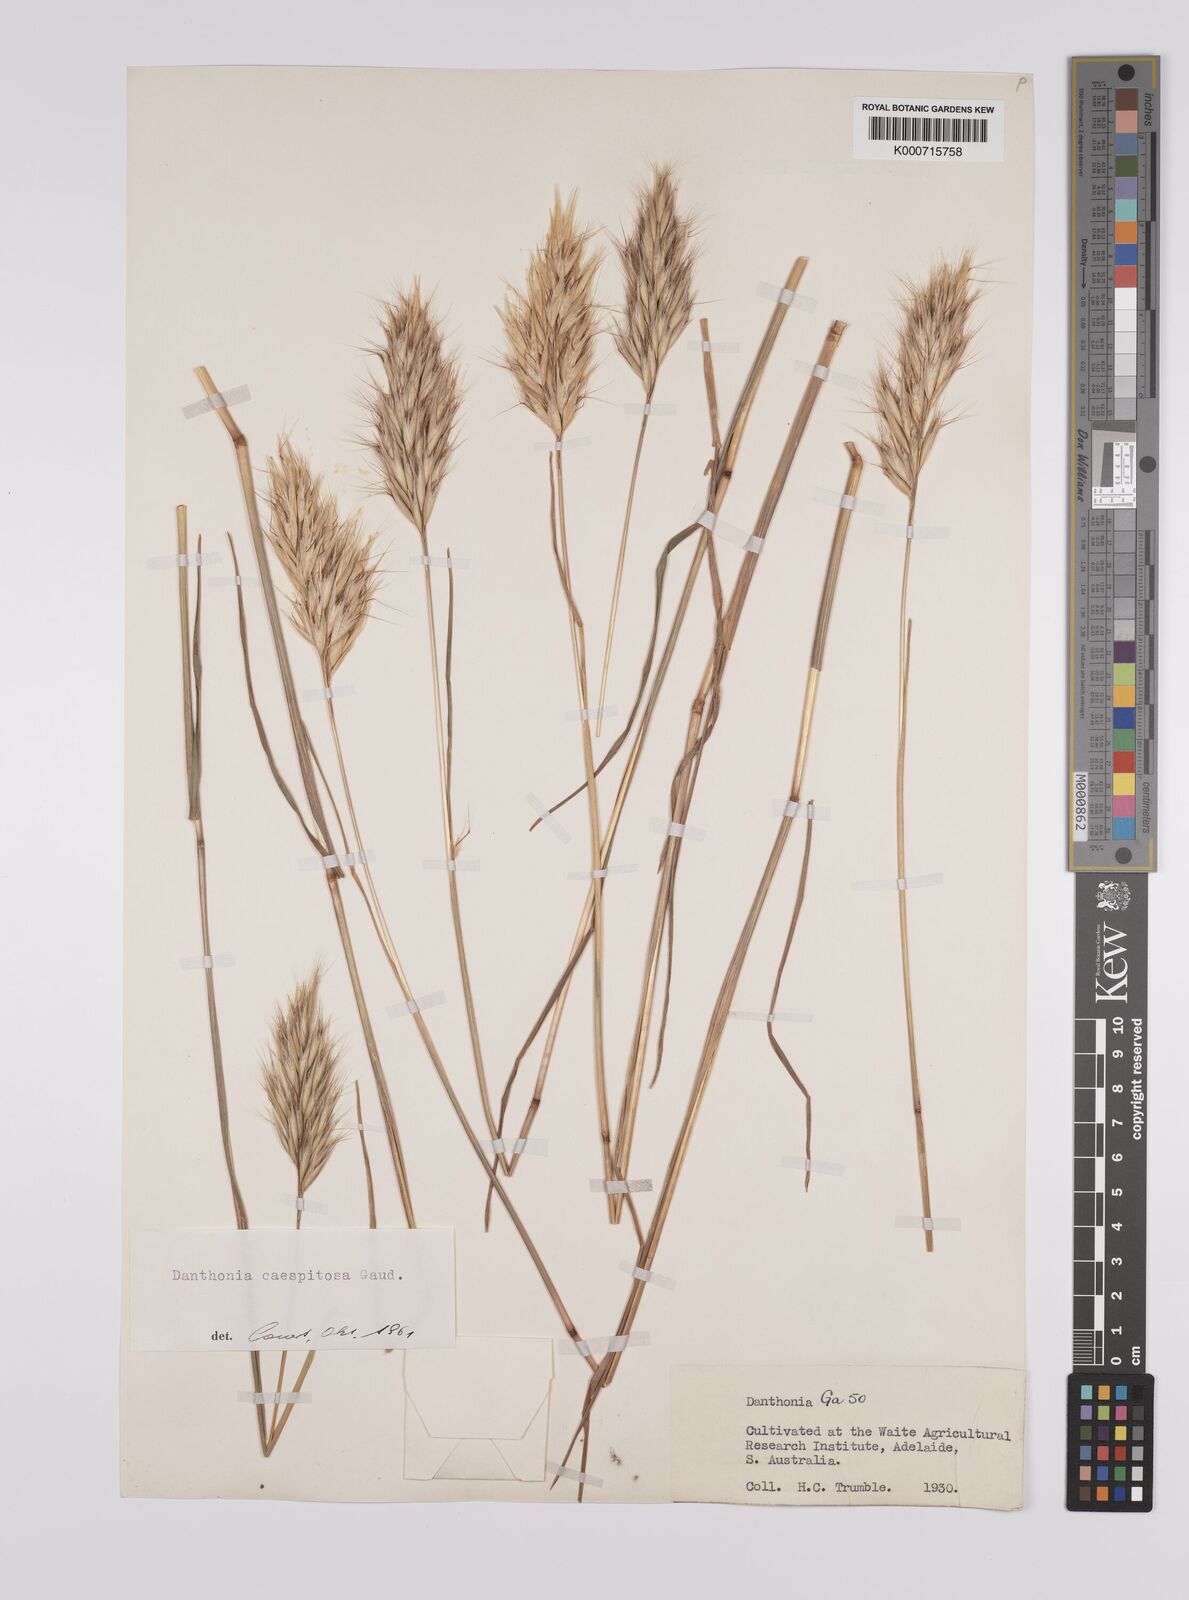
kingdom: Plantae
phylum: Tracheophyta
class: Liliopsida
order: Poales
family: Poaceae
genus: Rytidosperma
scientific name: Rytidosperma caespitosum
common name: Tufted wallaby grass
